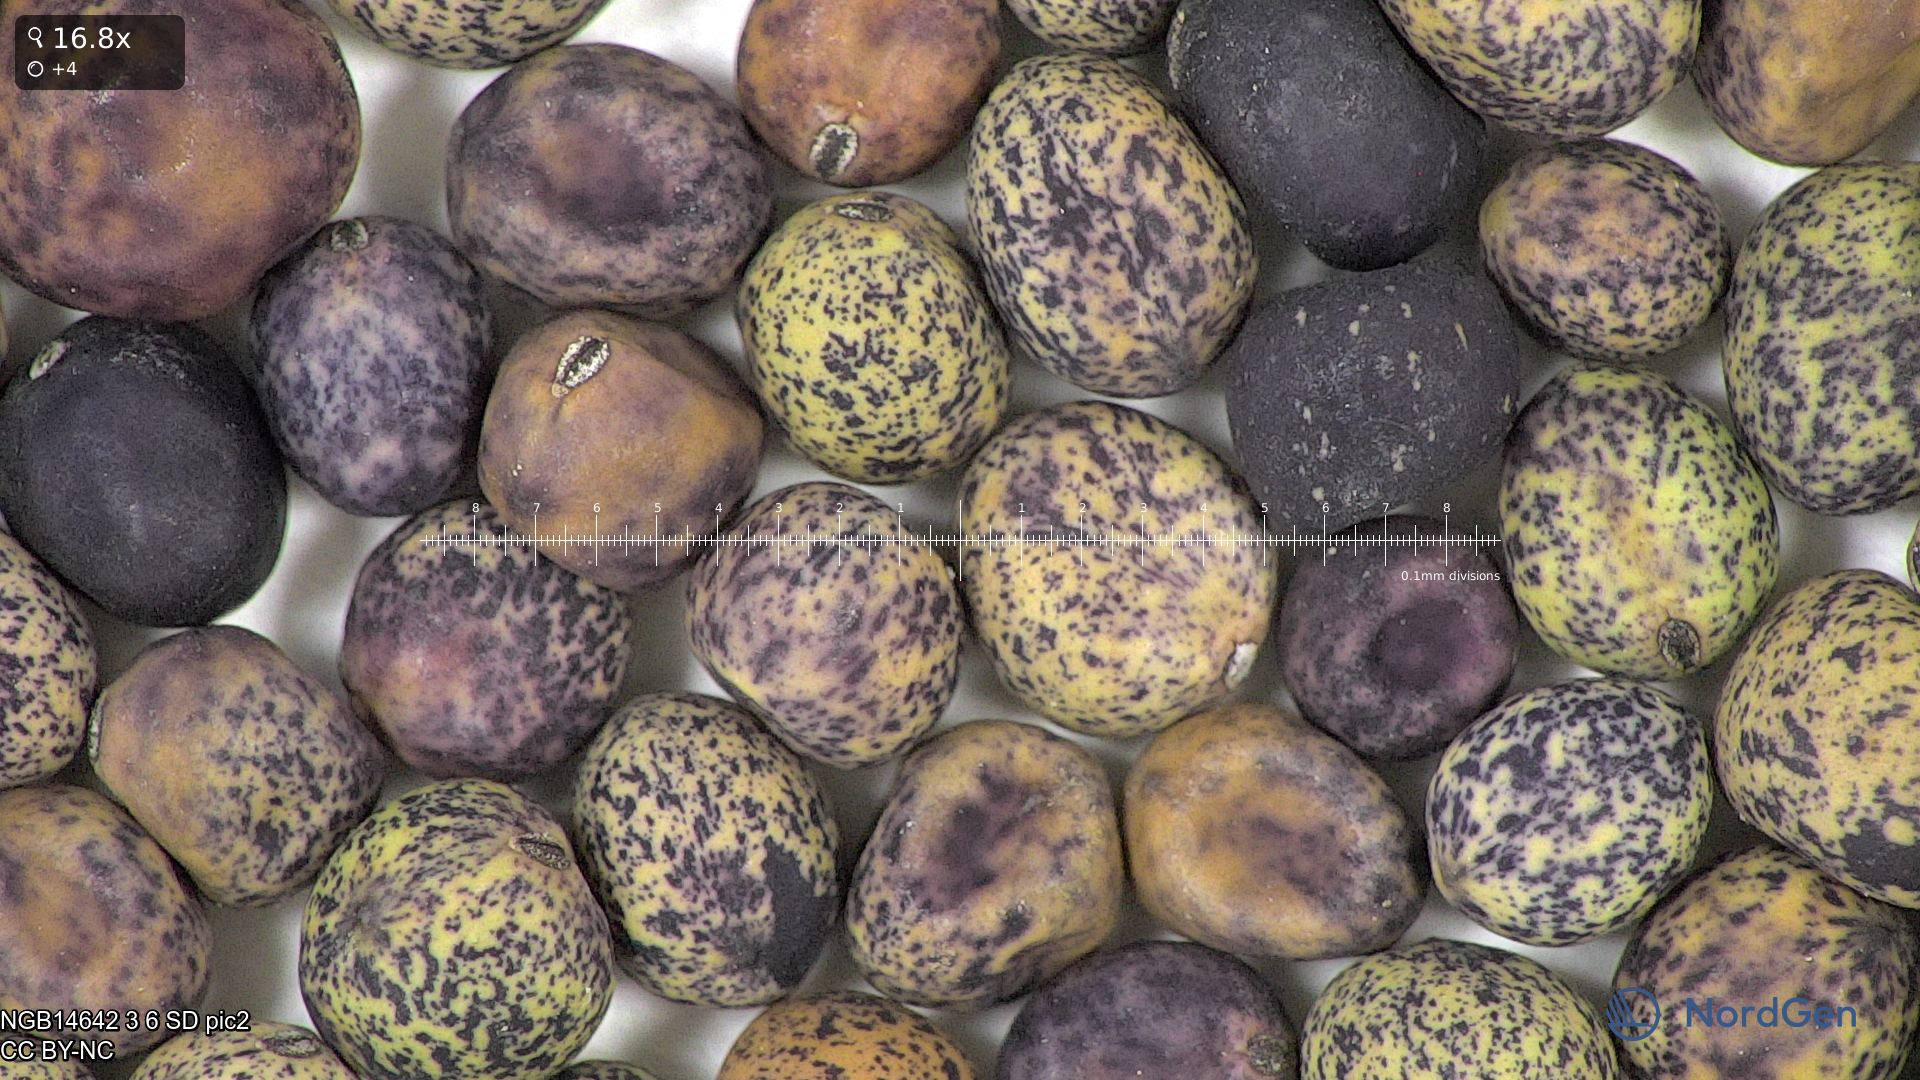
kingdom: Plantae
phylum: Tracheophyta
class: Magnoliopsida
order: Fabales
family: Fabaceae
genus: Lathyrus
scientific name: Lathyrus oleraceus
